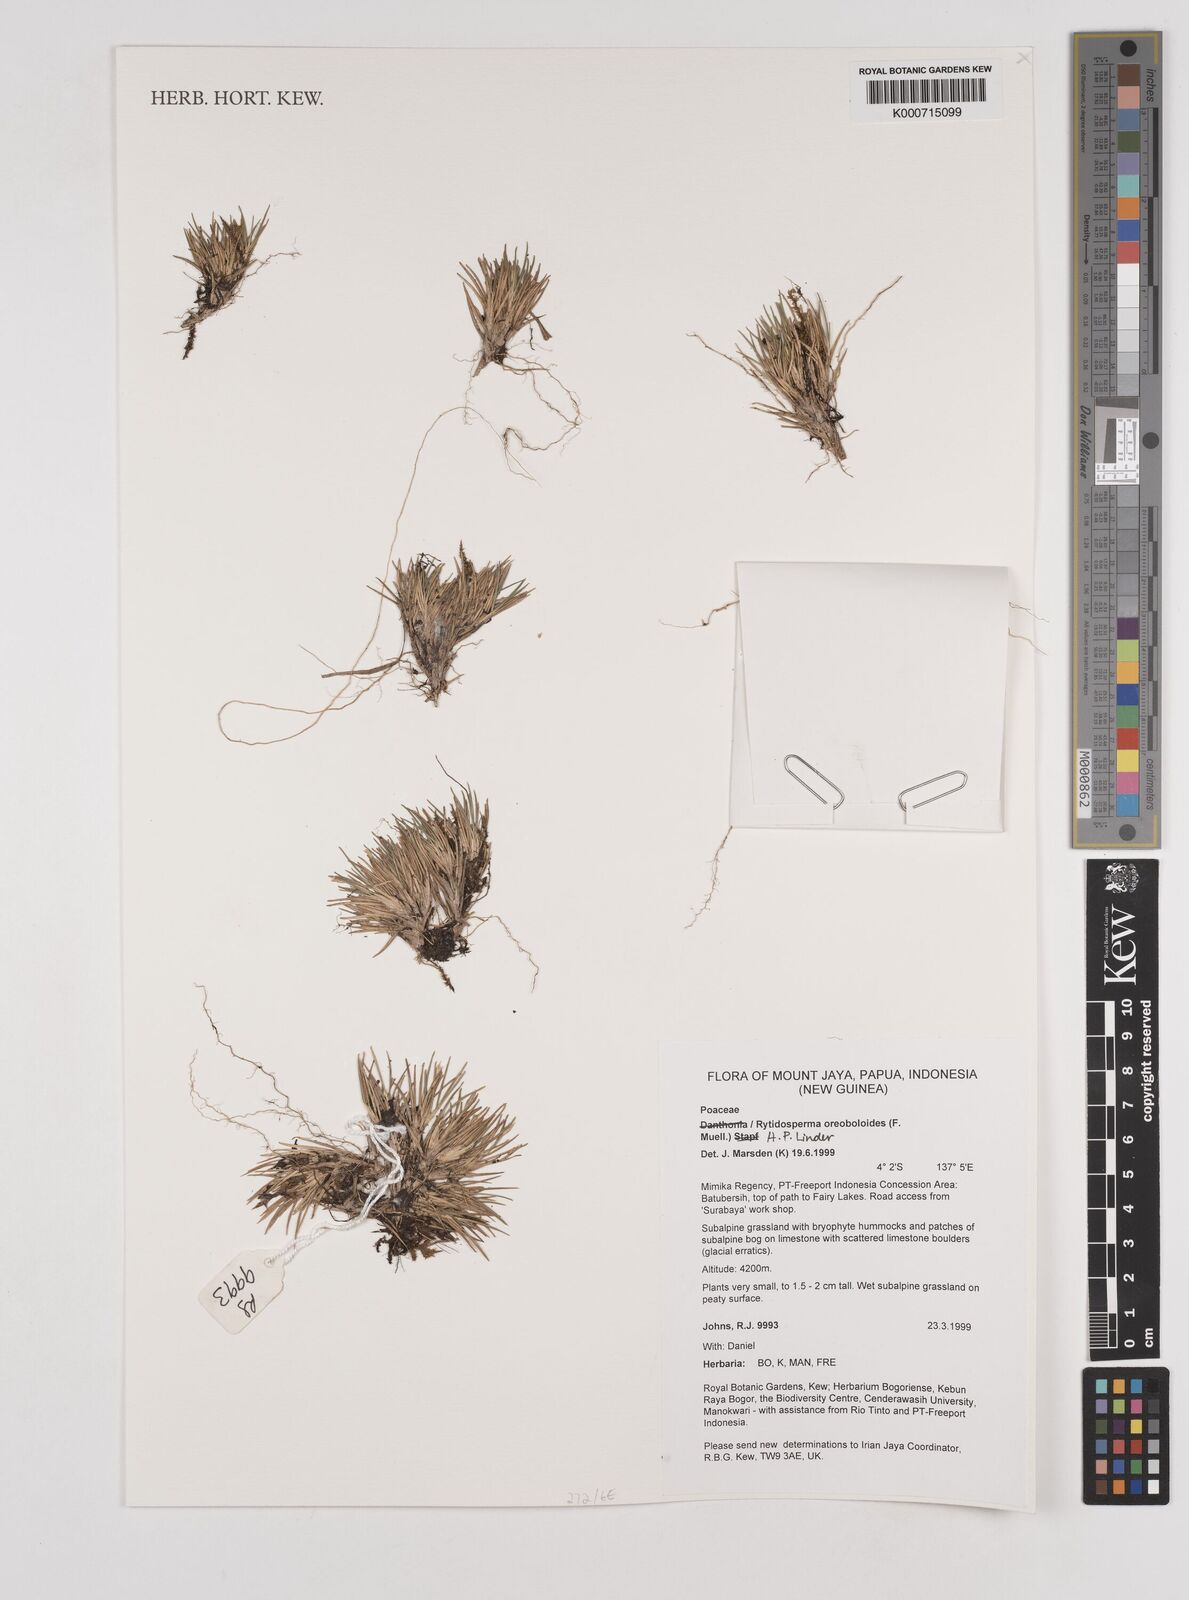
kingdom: Plantae
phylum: Tracheophyta
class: Liliopsida
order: Poales
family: Poaceae
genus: Rytidosperma
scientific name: Rytidosperma oreoboloides
